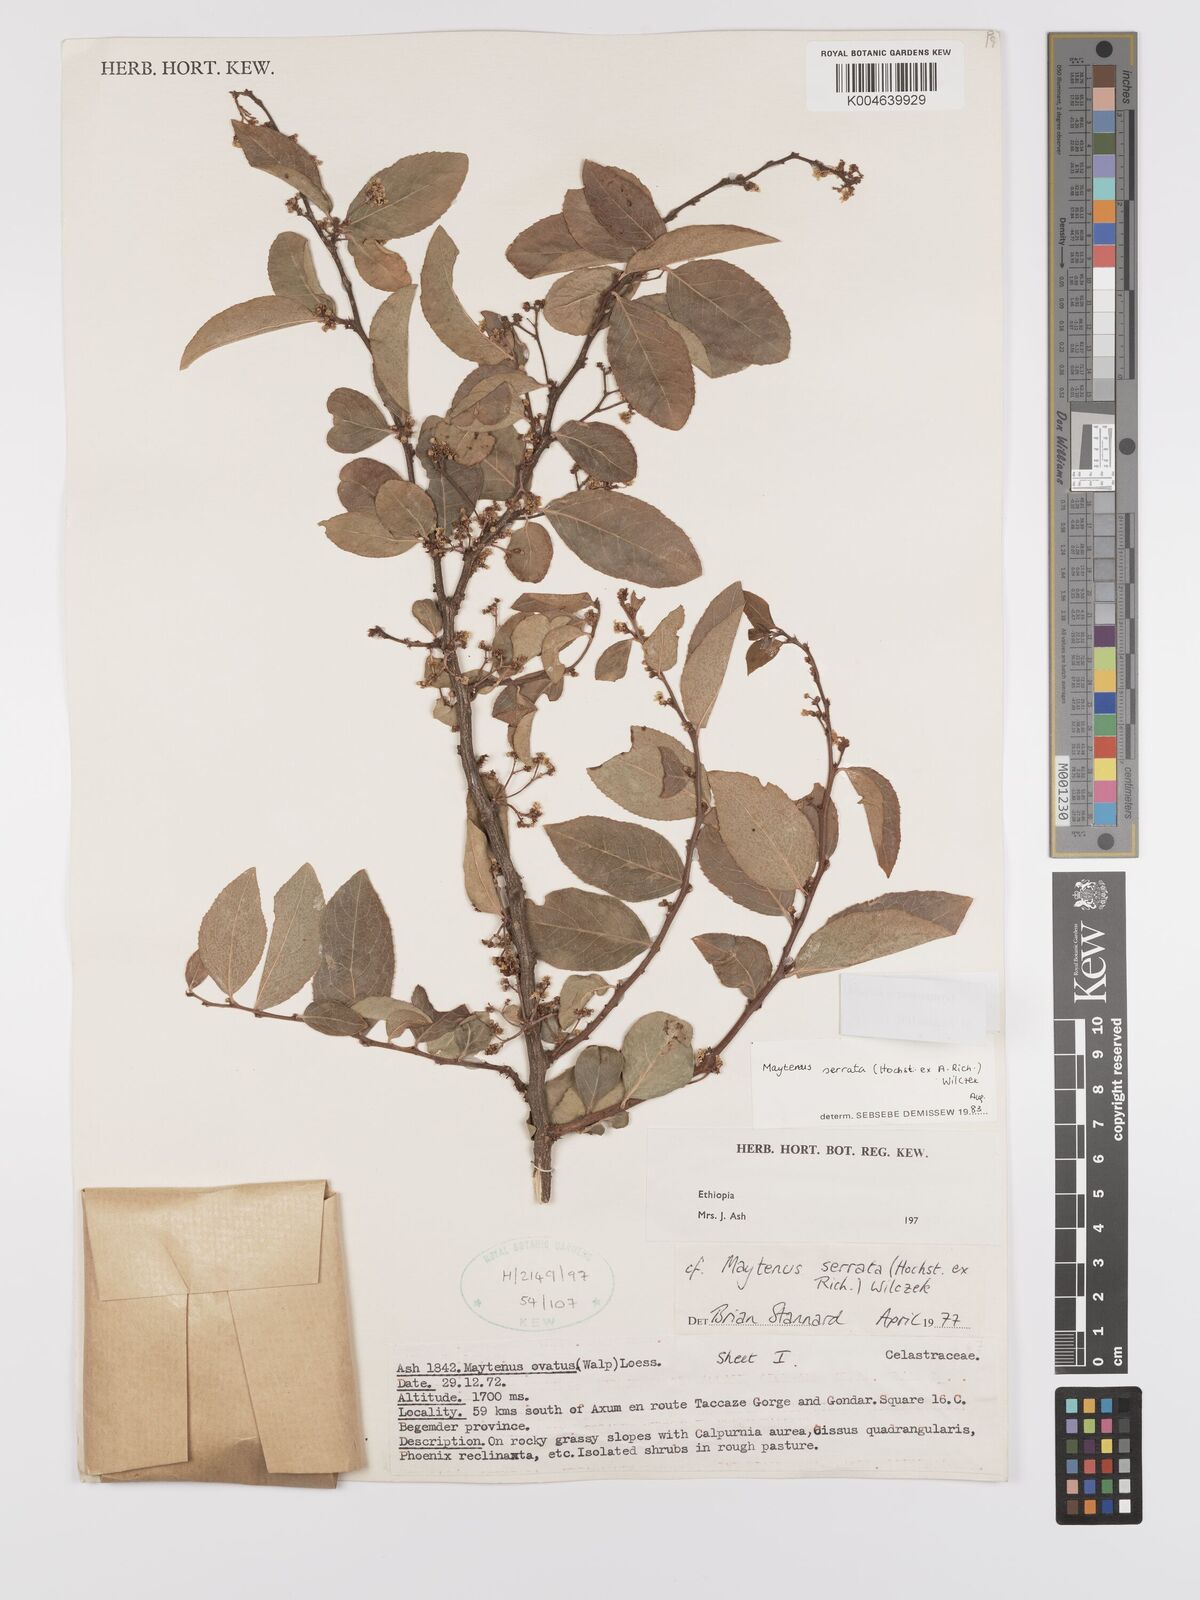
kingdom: Plantae
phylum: Tracheophyta
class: Magnoliopsida
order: Celastrales
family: Celastraceae
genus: Gymnosporia
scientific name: Gymnosporia serrata
